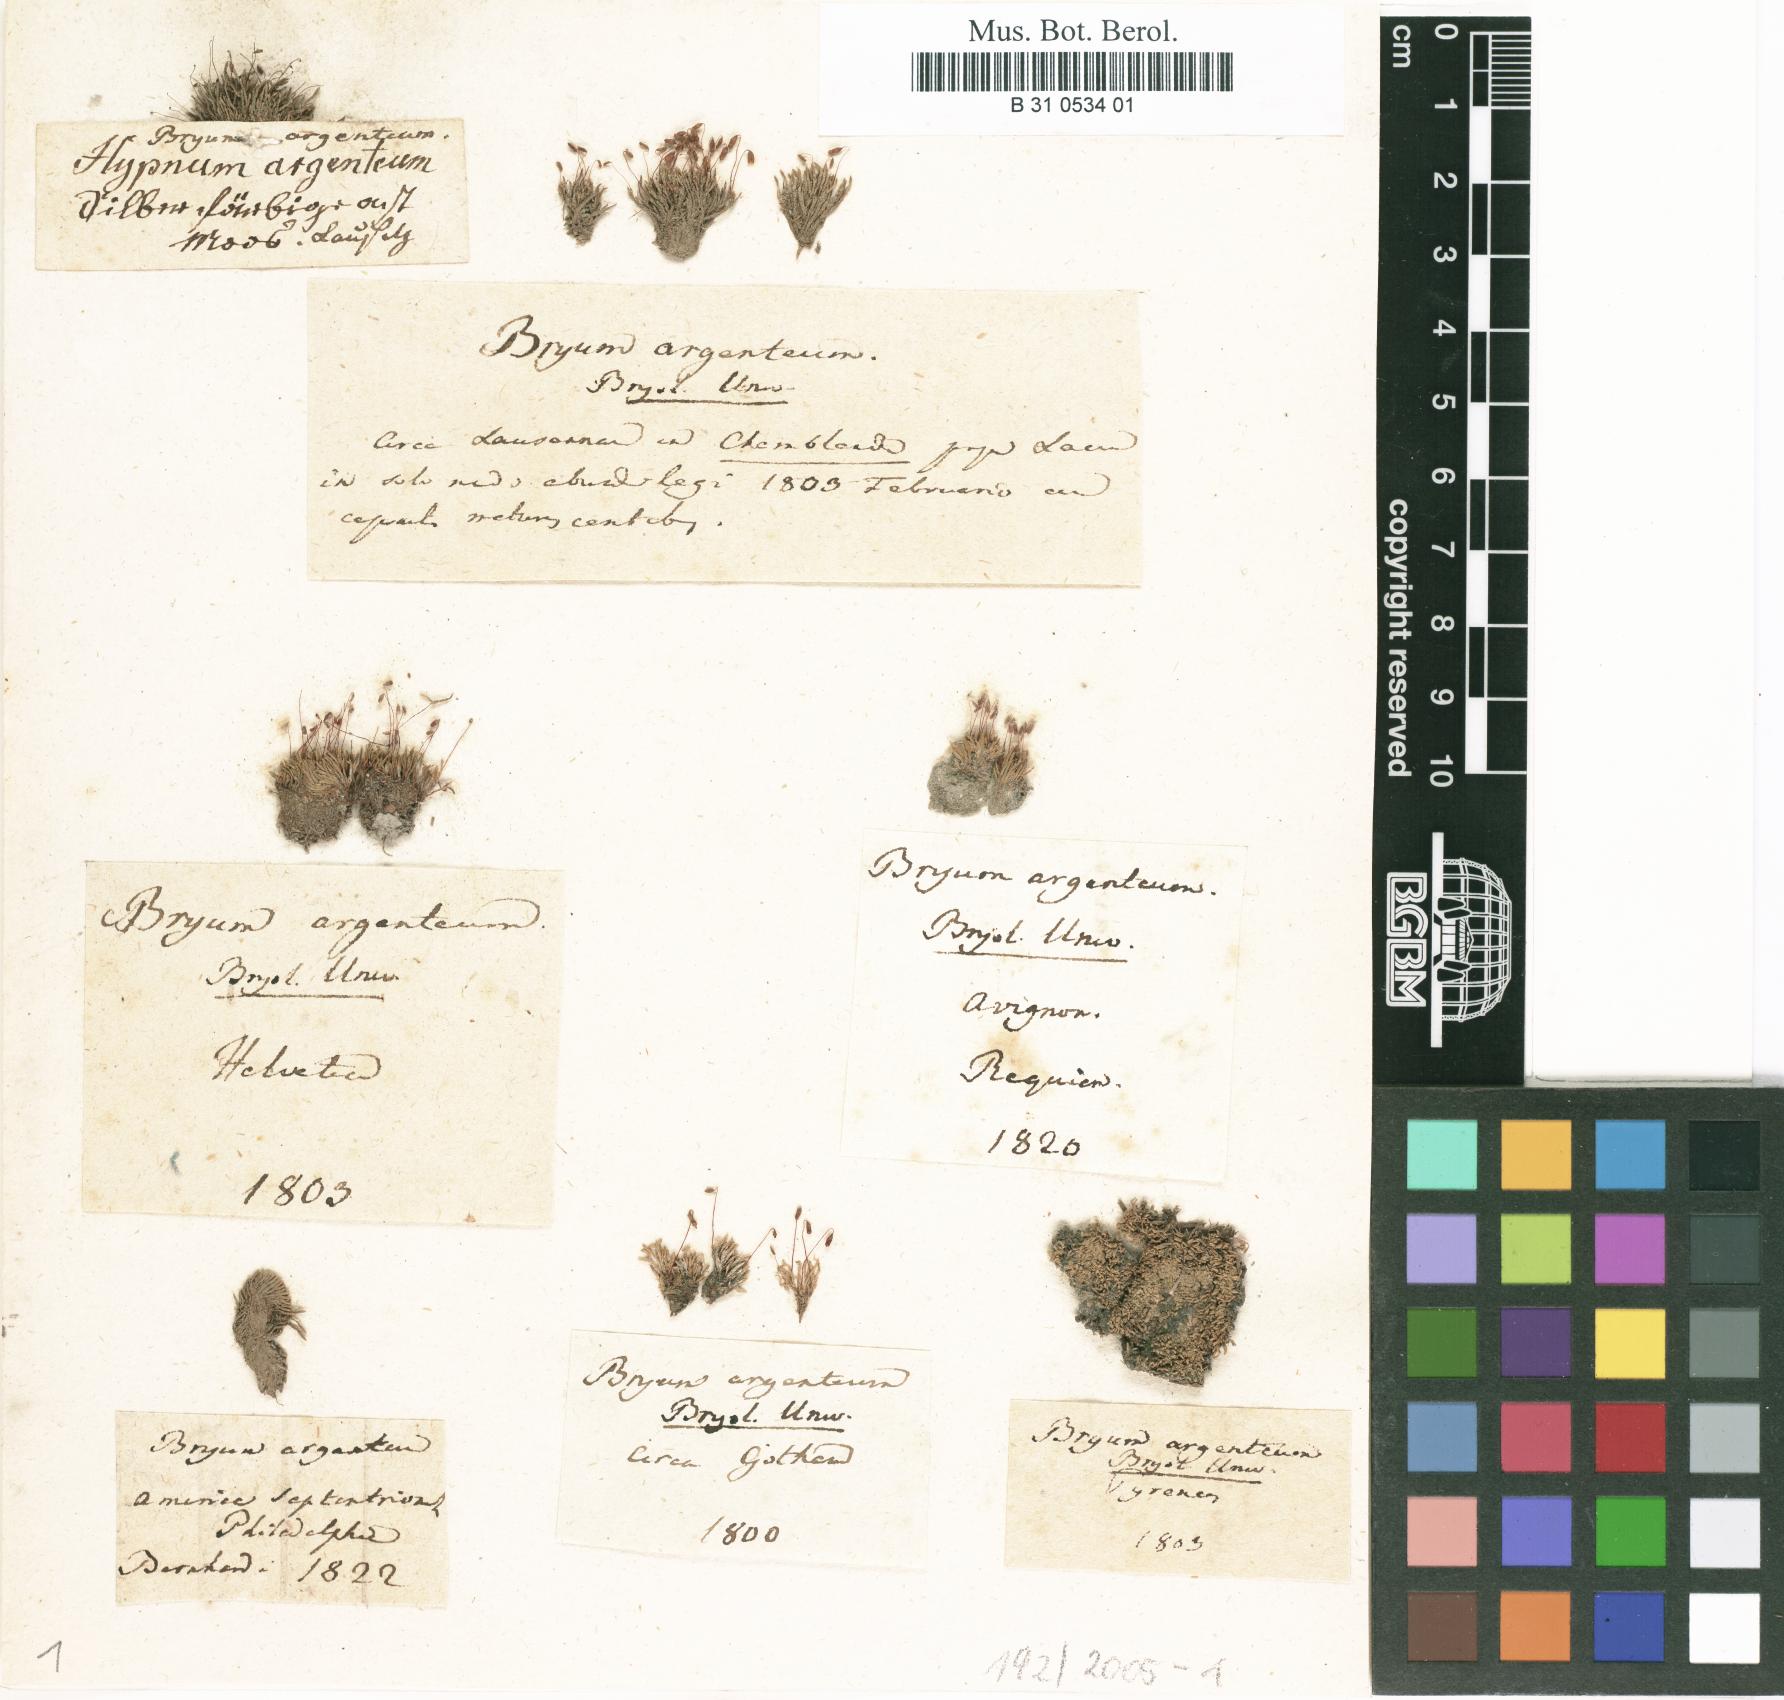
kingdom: Plantae
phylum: Bryophyta
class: Bryopsida
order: Bryales
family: Bryaceae
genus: Bryum
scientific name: Bryum argenteum
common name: Silver-moss
